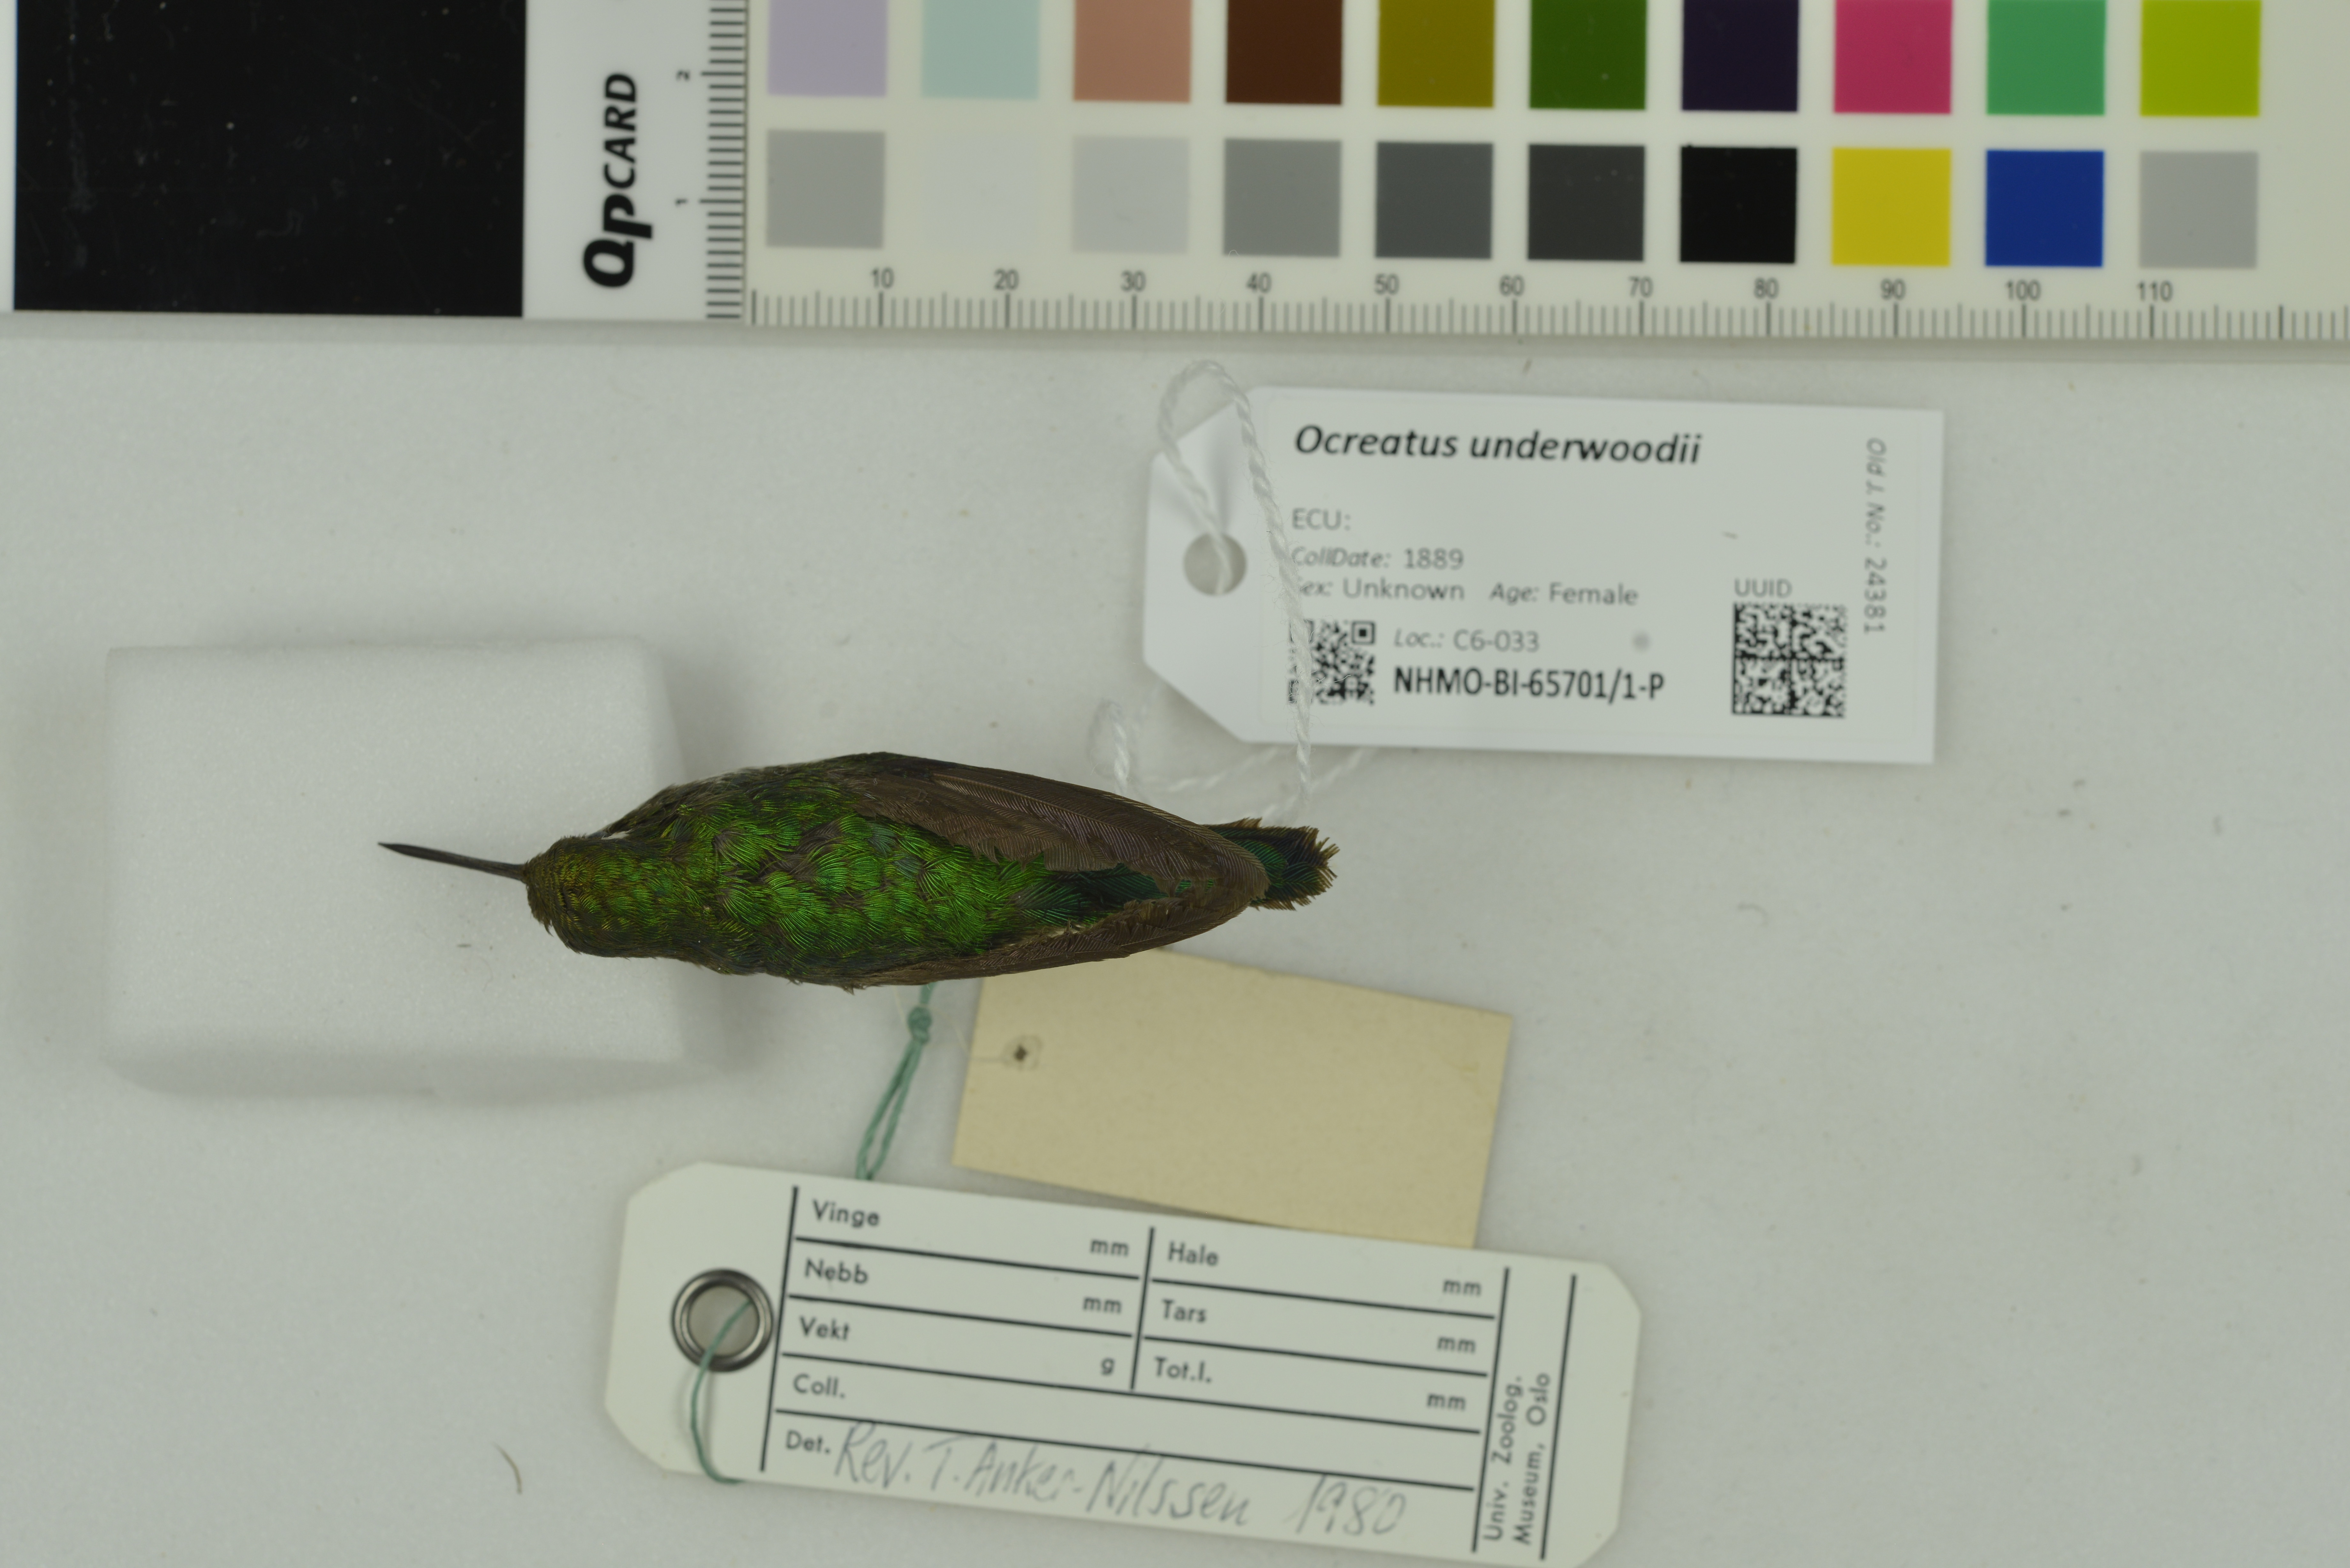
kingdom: Animalia
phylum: Chordata
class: Aves
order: Apodiformes
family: Trochilidae
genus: Ocreatus
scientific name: Ocreatus underwoodii
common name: Booted racket-tail
